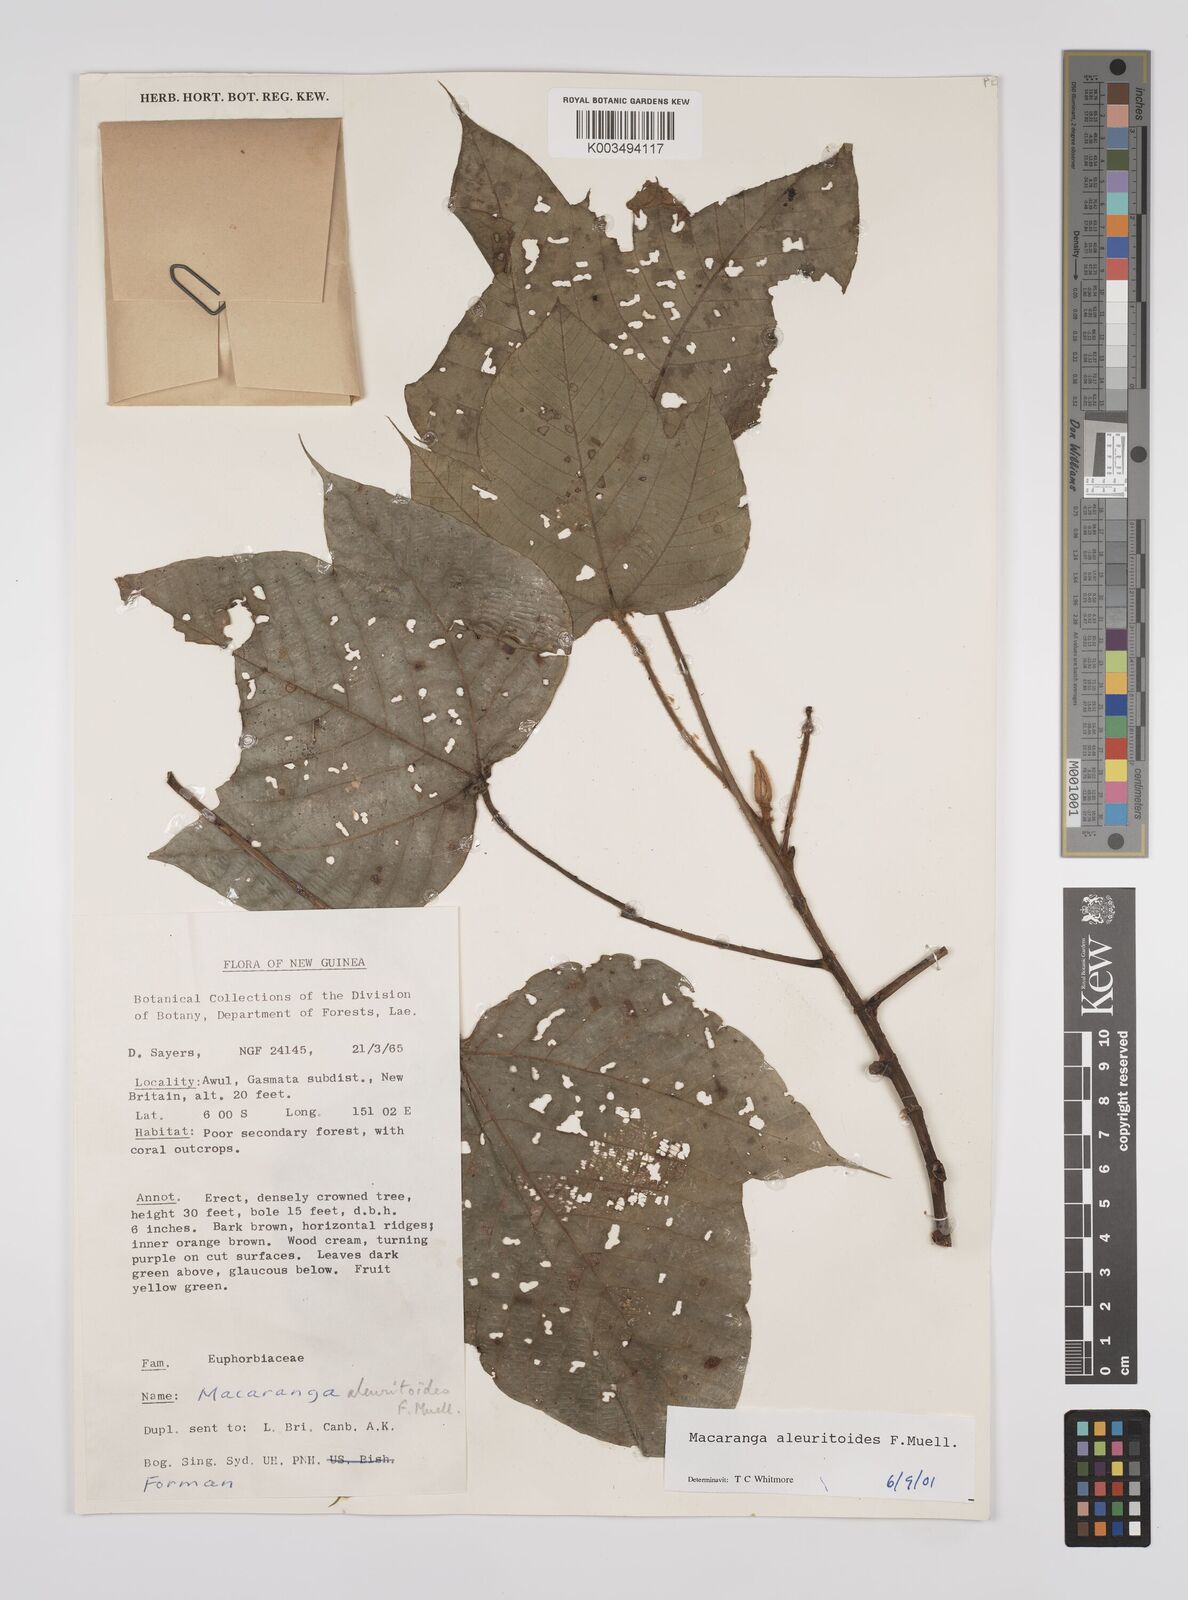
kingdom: Plantae
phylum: Tracheophyta
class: Magnoliopsida
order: Malpighiales
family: Euphorbiaceae
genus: Macaranga
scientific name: Macaranga aleuritoides
